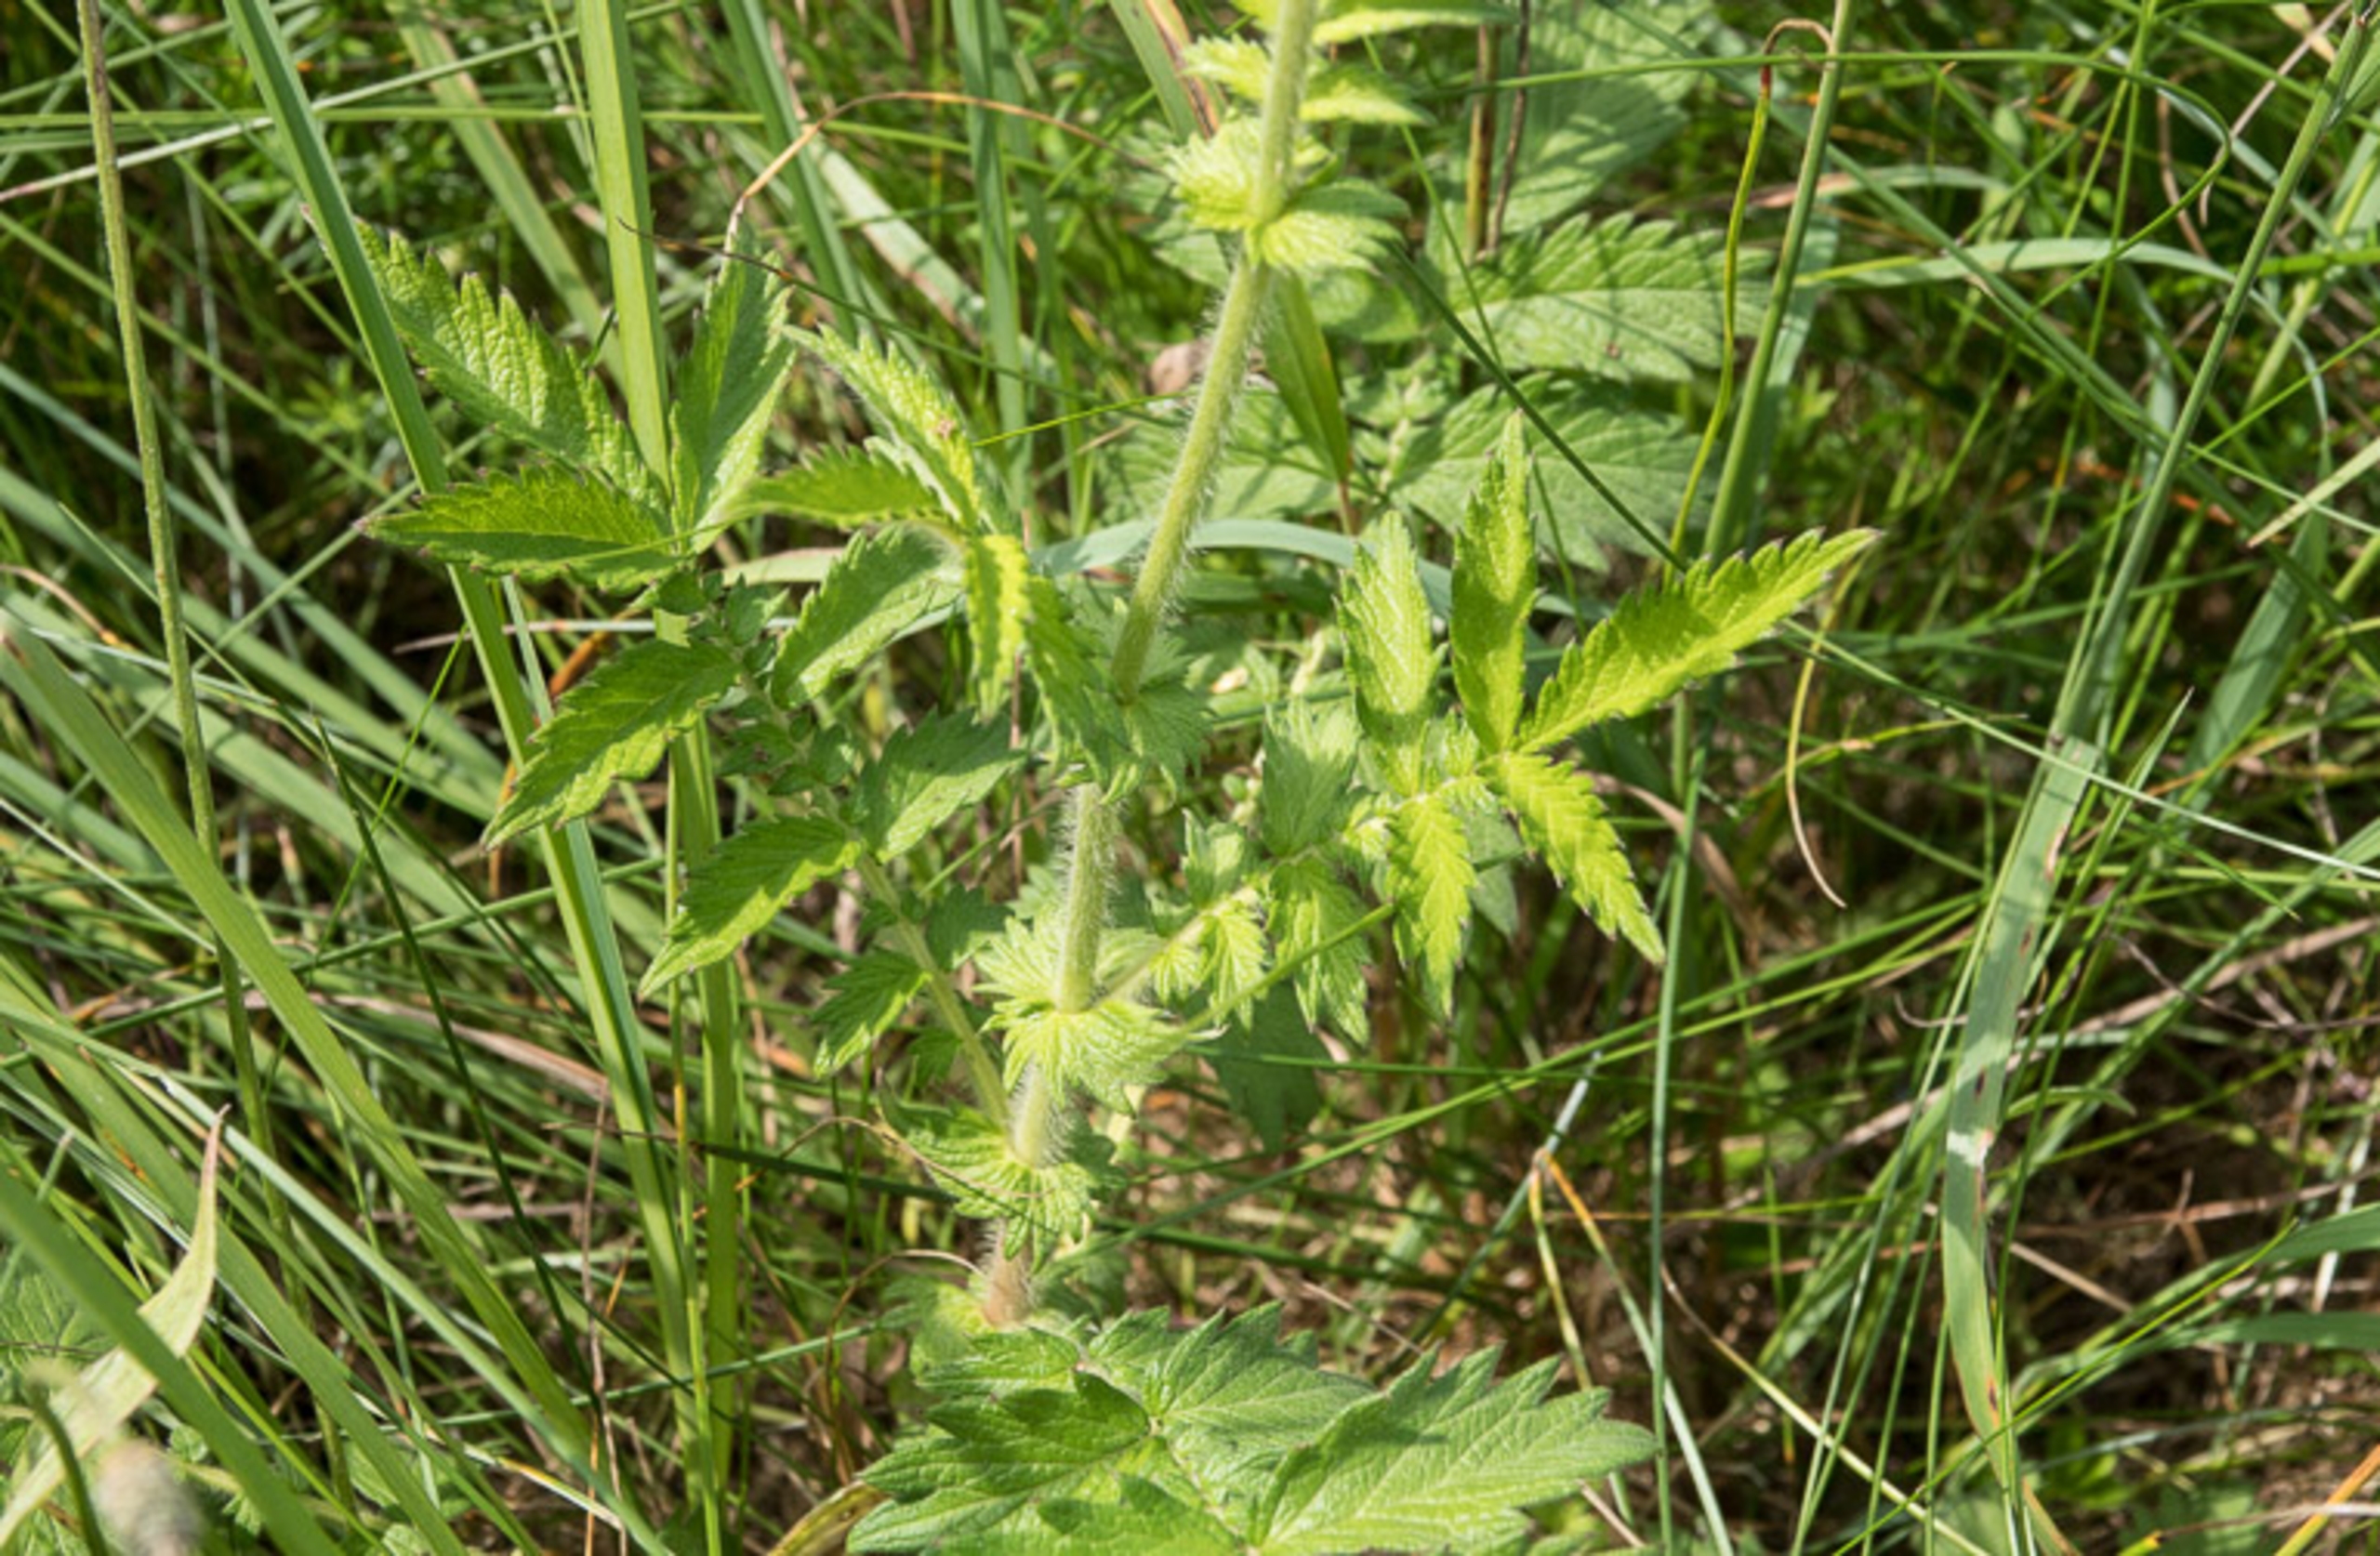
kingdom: Plantae
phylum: Tracheophyta
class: Magnoliopsida
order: Rosales
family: Rosaceae
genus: Agrimonia
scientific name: Agrimonia eupatoria
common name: Almindelig agermåne
